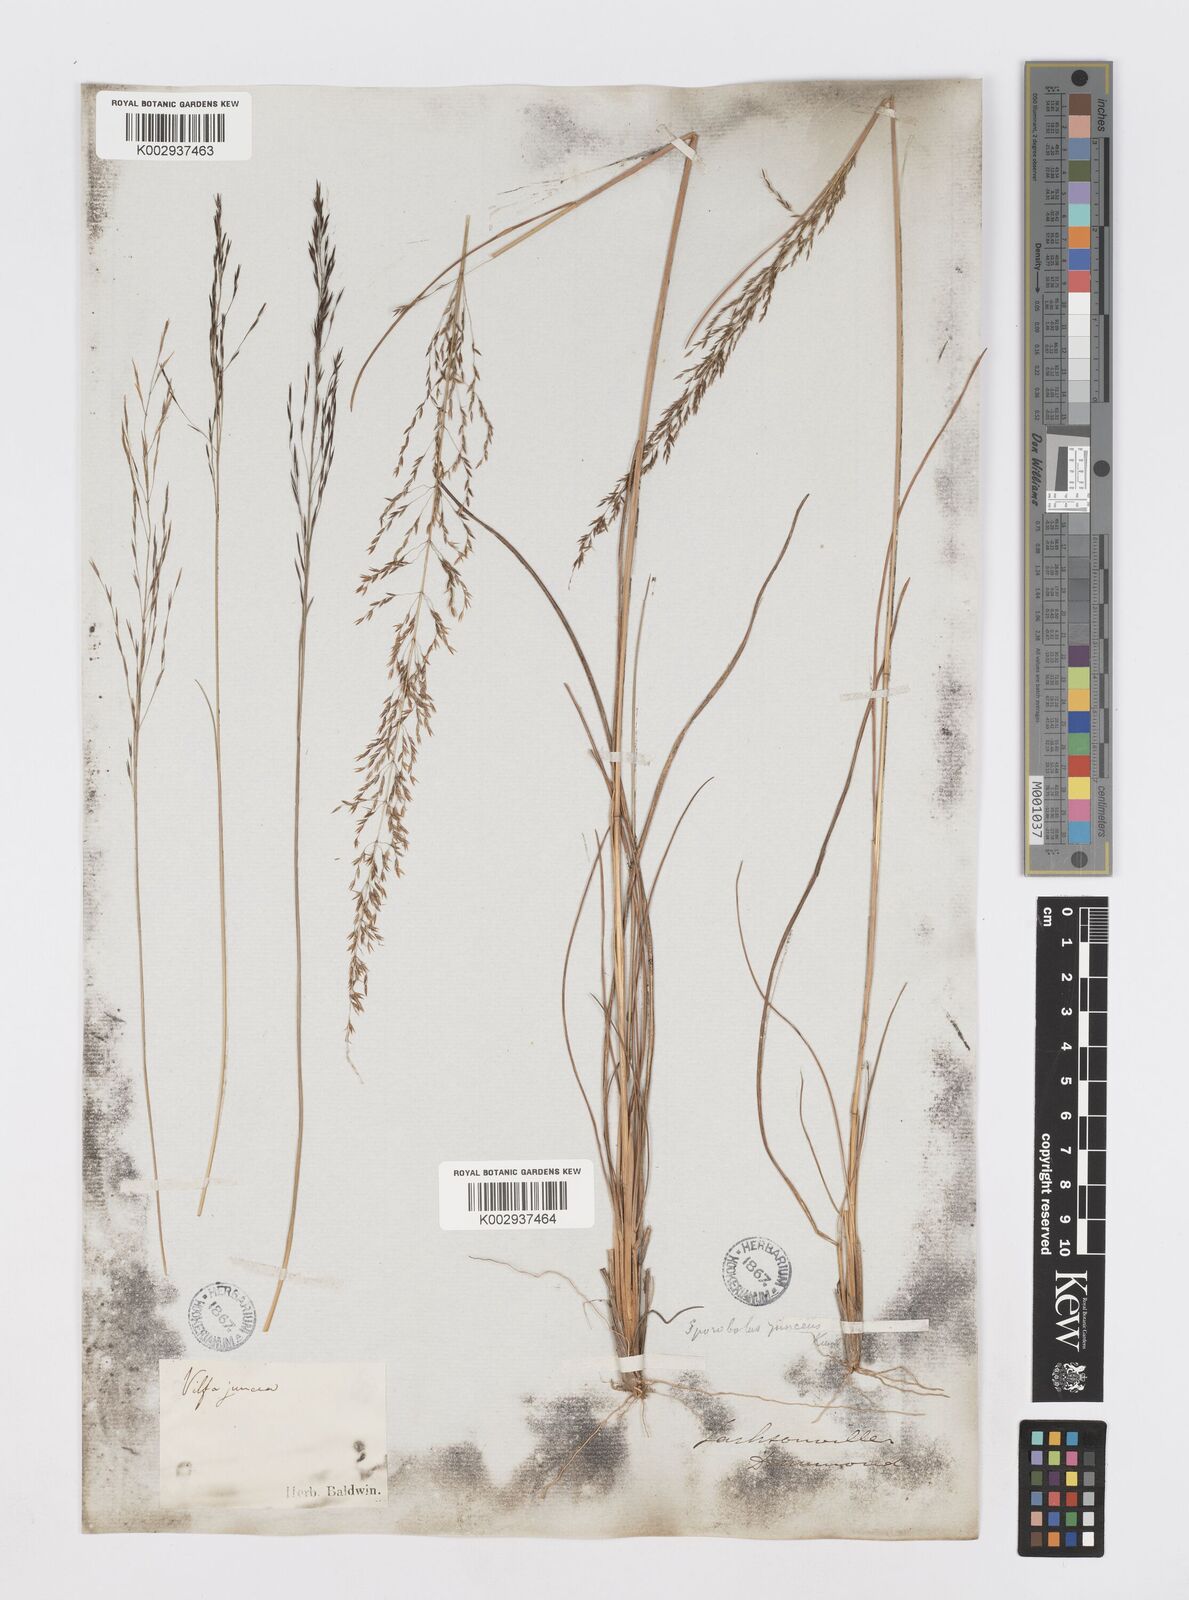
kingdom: Plantae
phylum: Tracheophyta
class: Liliopsida
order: Poales
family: Poaceae
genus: Sporobolus
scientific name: Sporobolus junceus
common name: Lizard grass
